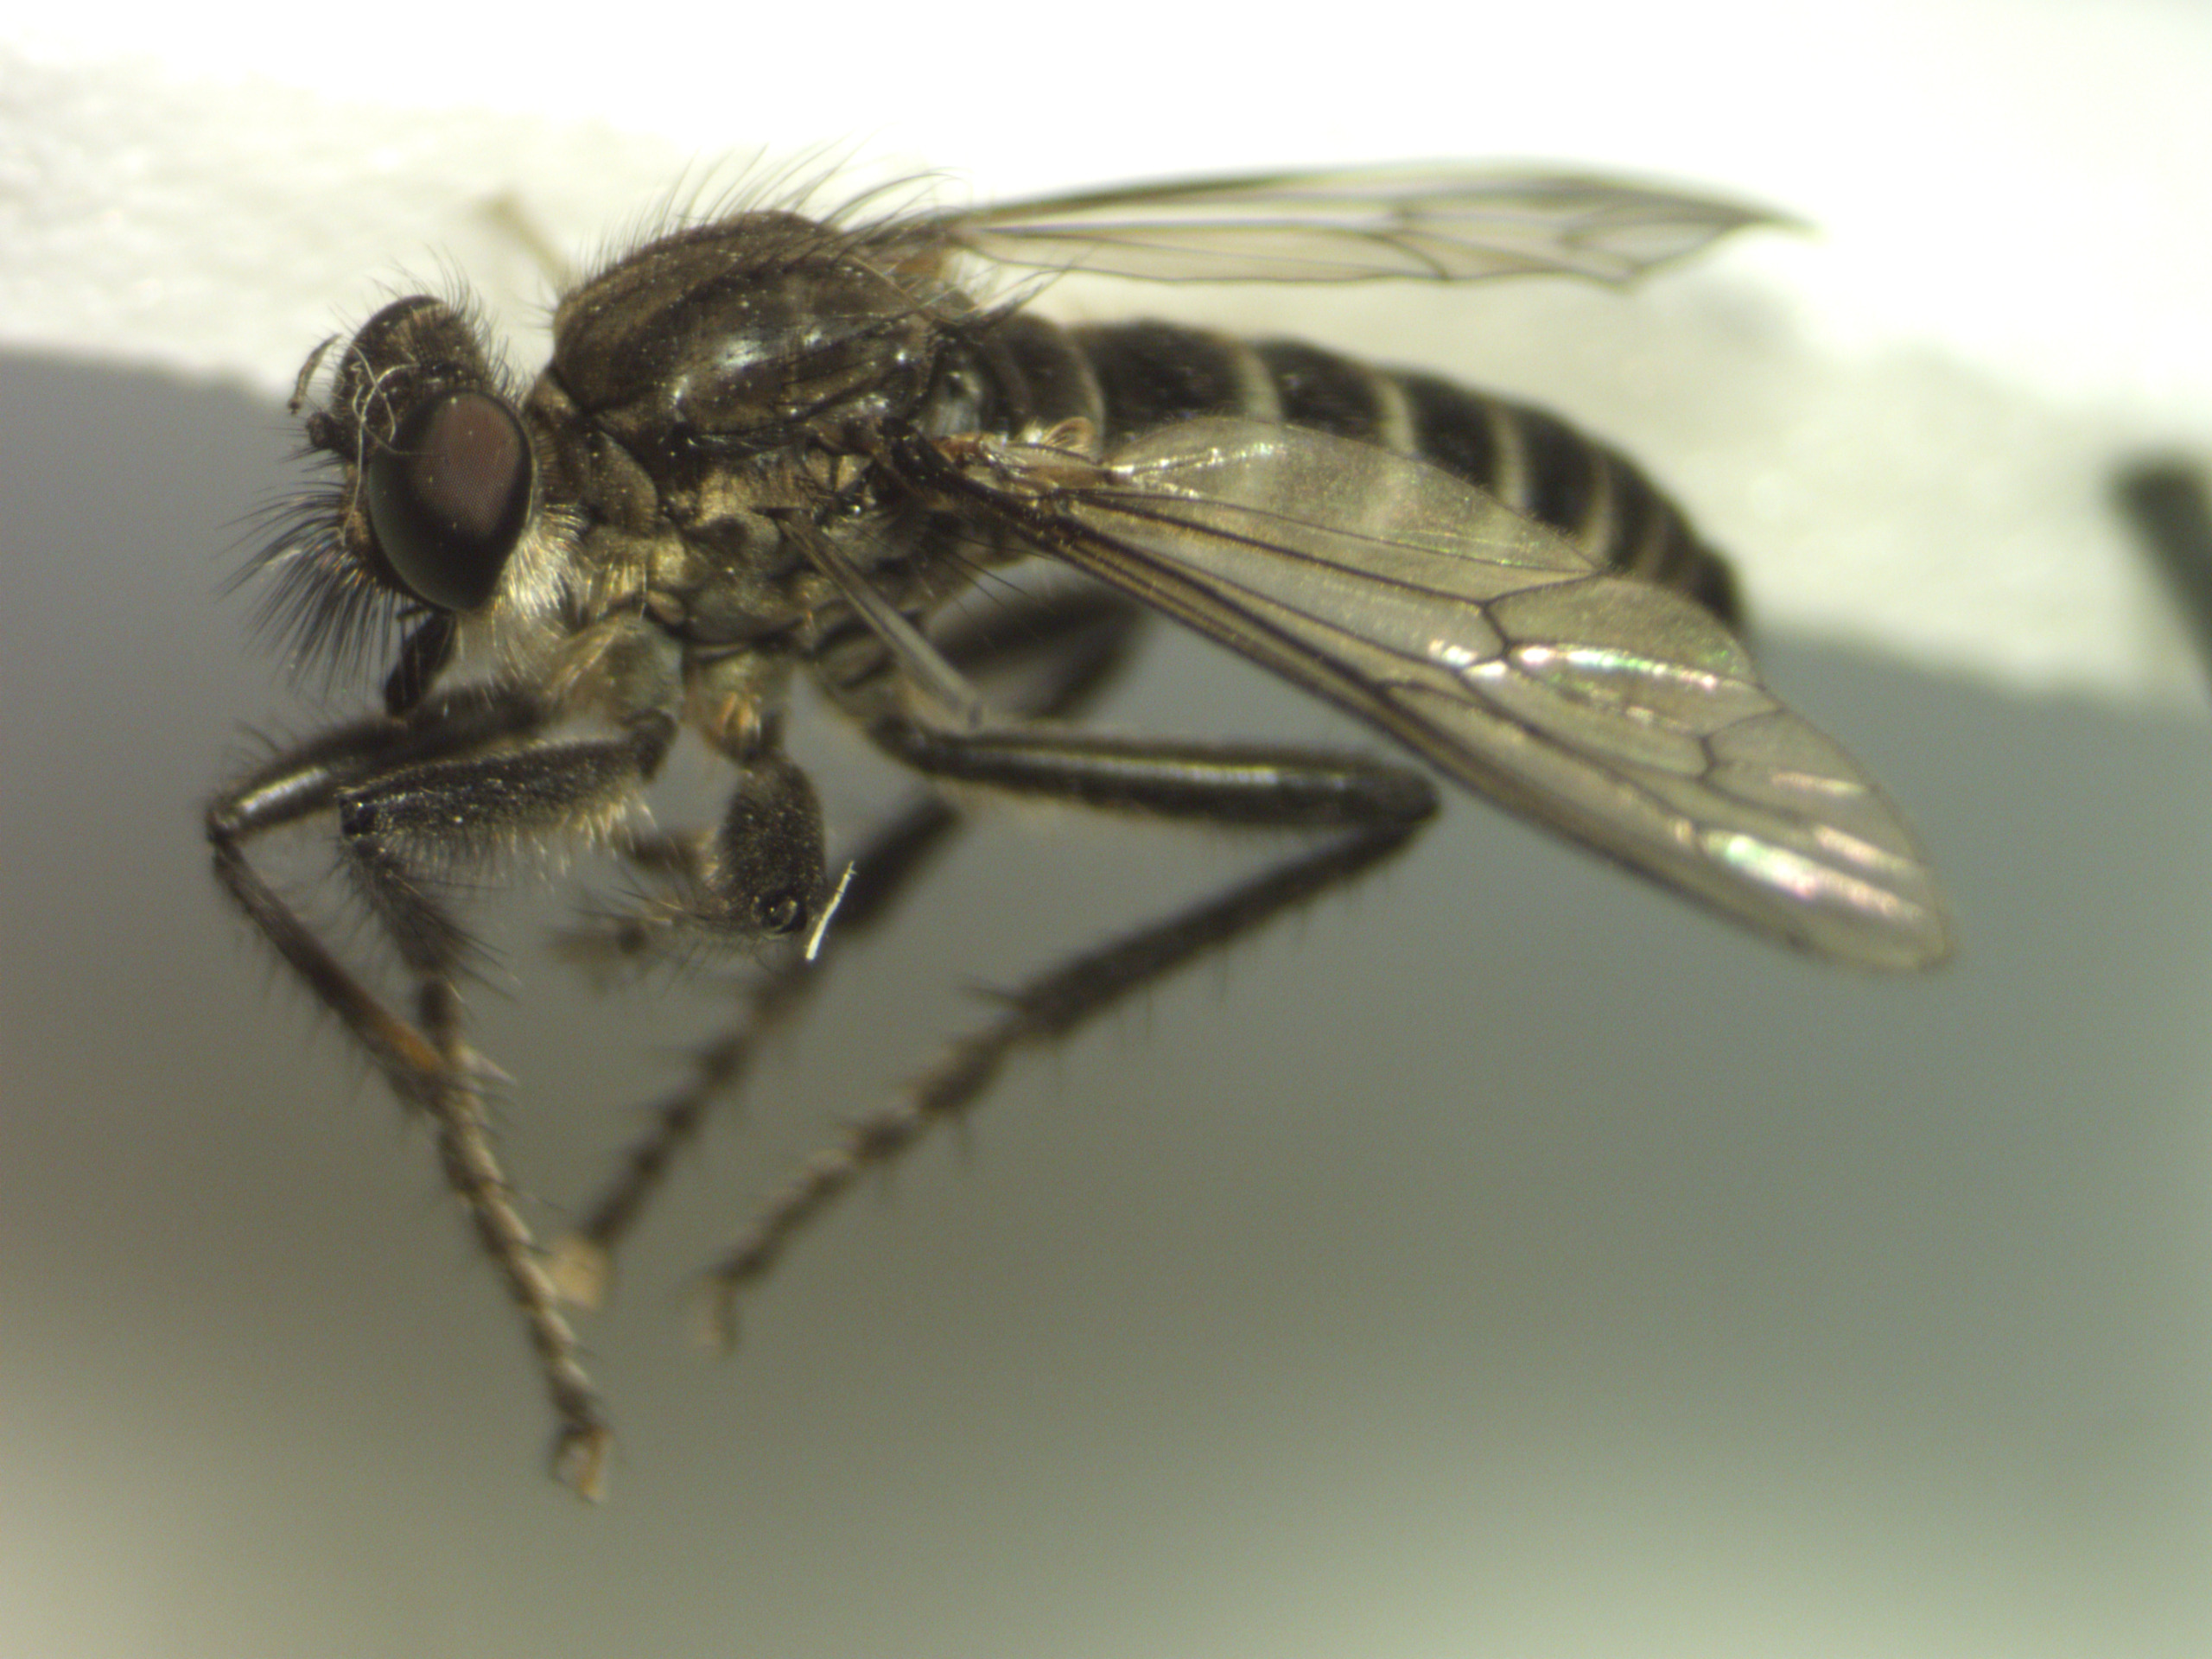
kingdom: Animalia
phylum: Arthropoda
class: Insecta
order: Diptera
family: Asilidae
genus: Lasiopogon
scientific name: Lasiopogon cinctus
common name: Almindelig båndrovflue
